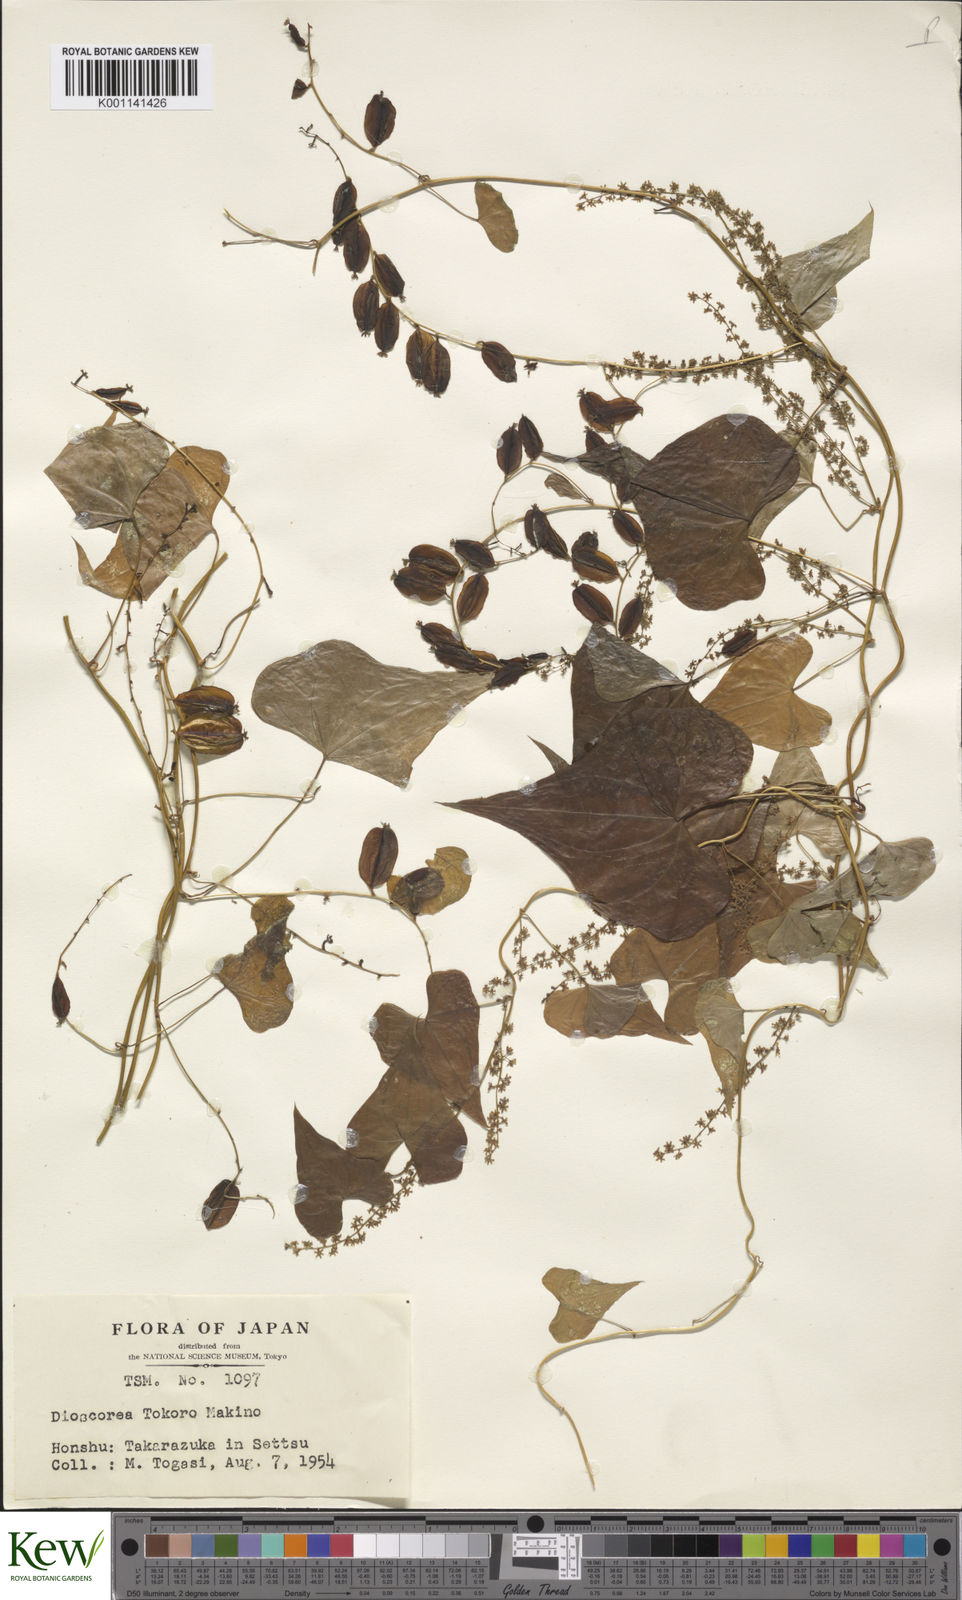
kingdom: Plantae
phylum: Tracheophyta
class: Liliopsida
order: Dioscoreales
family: Dioscoreaceae
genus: Dioscorea
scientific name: Dioscorea tokoro
